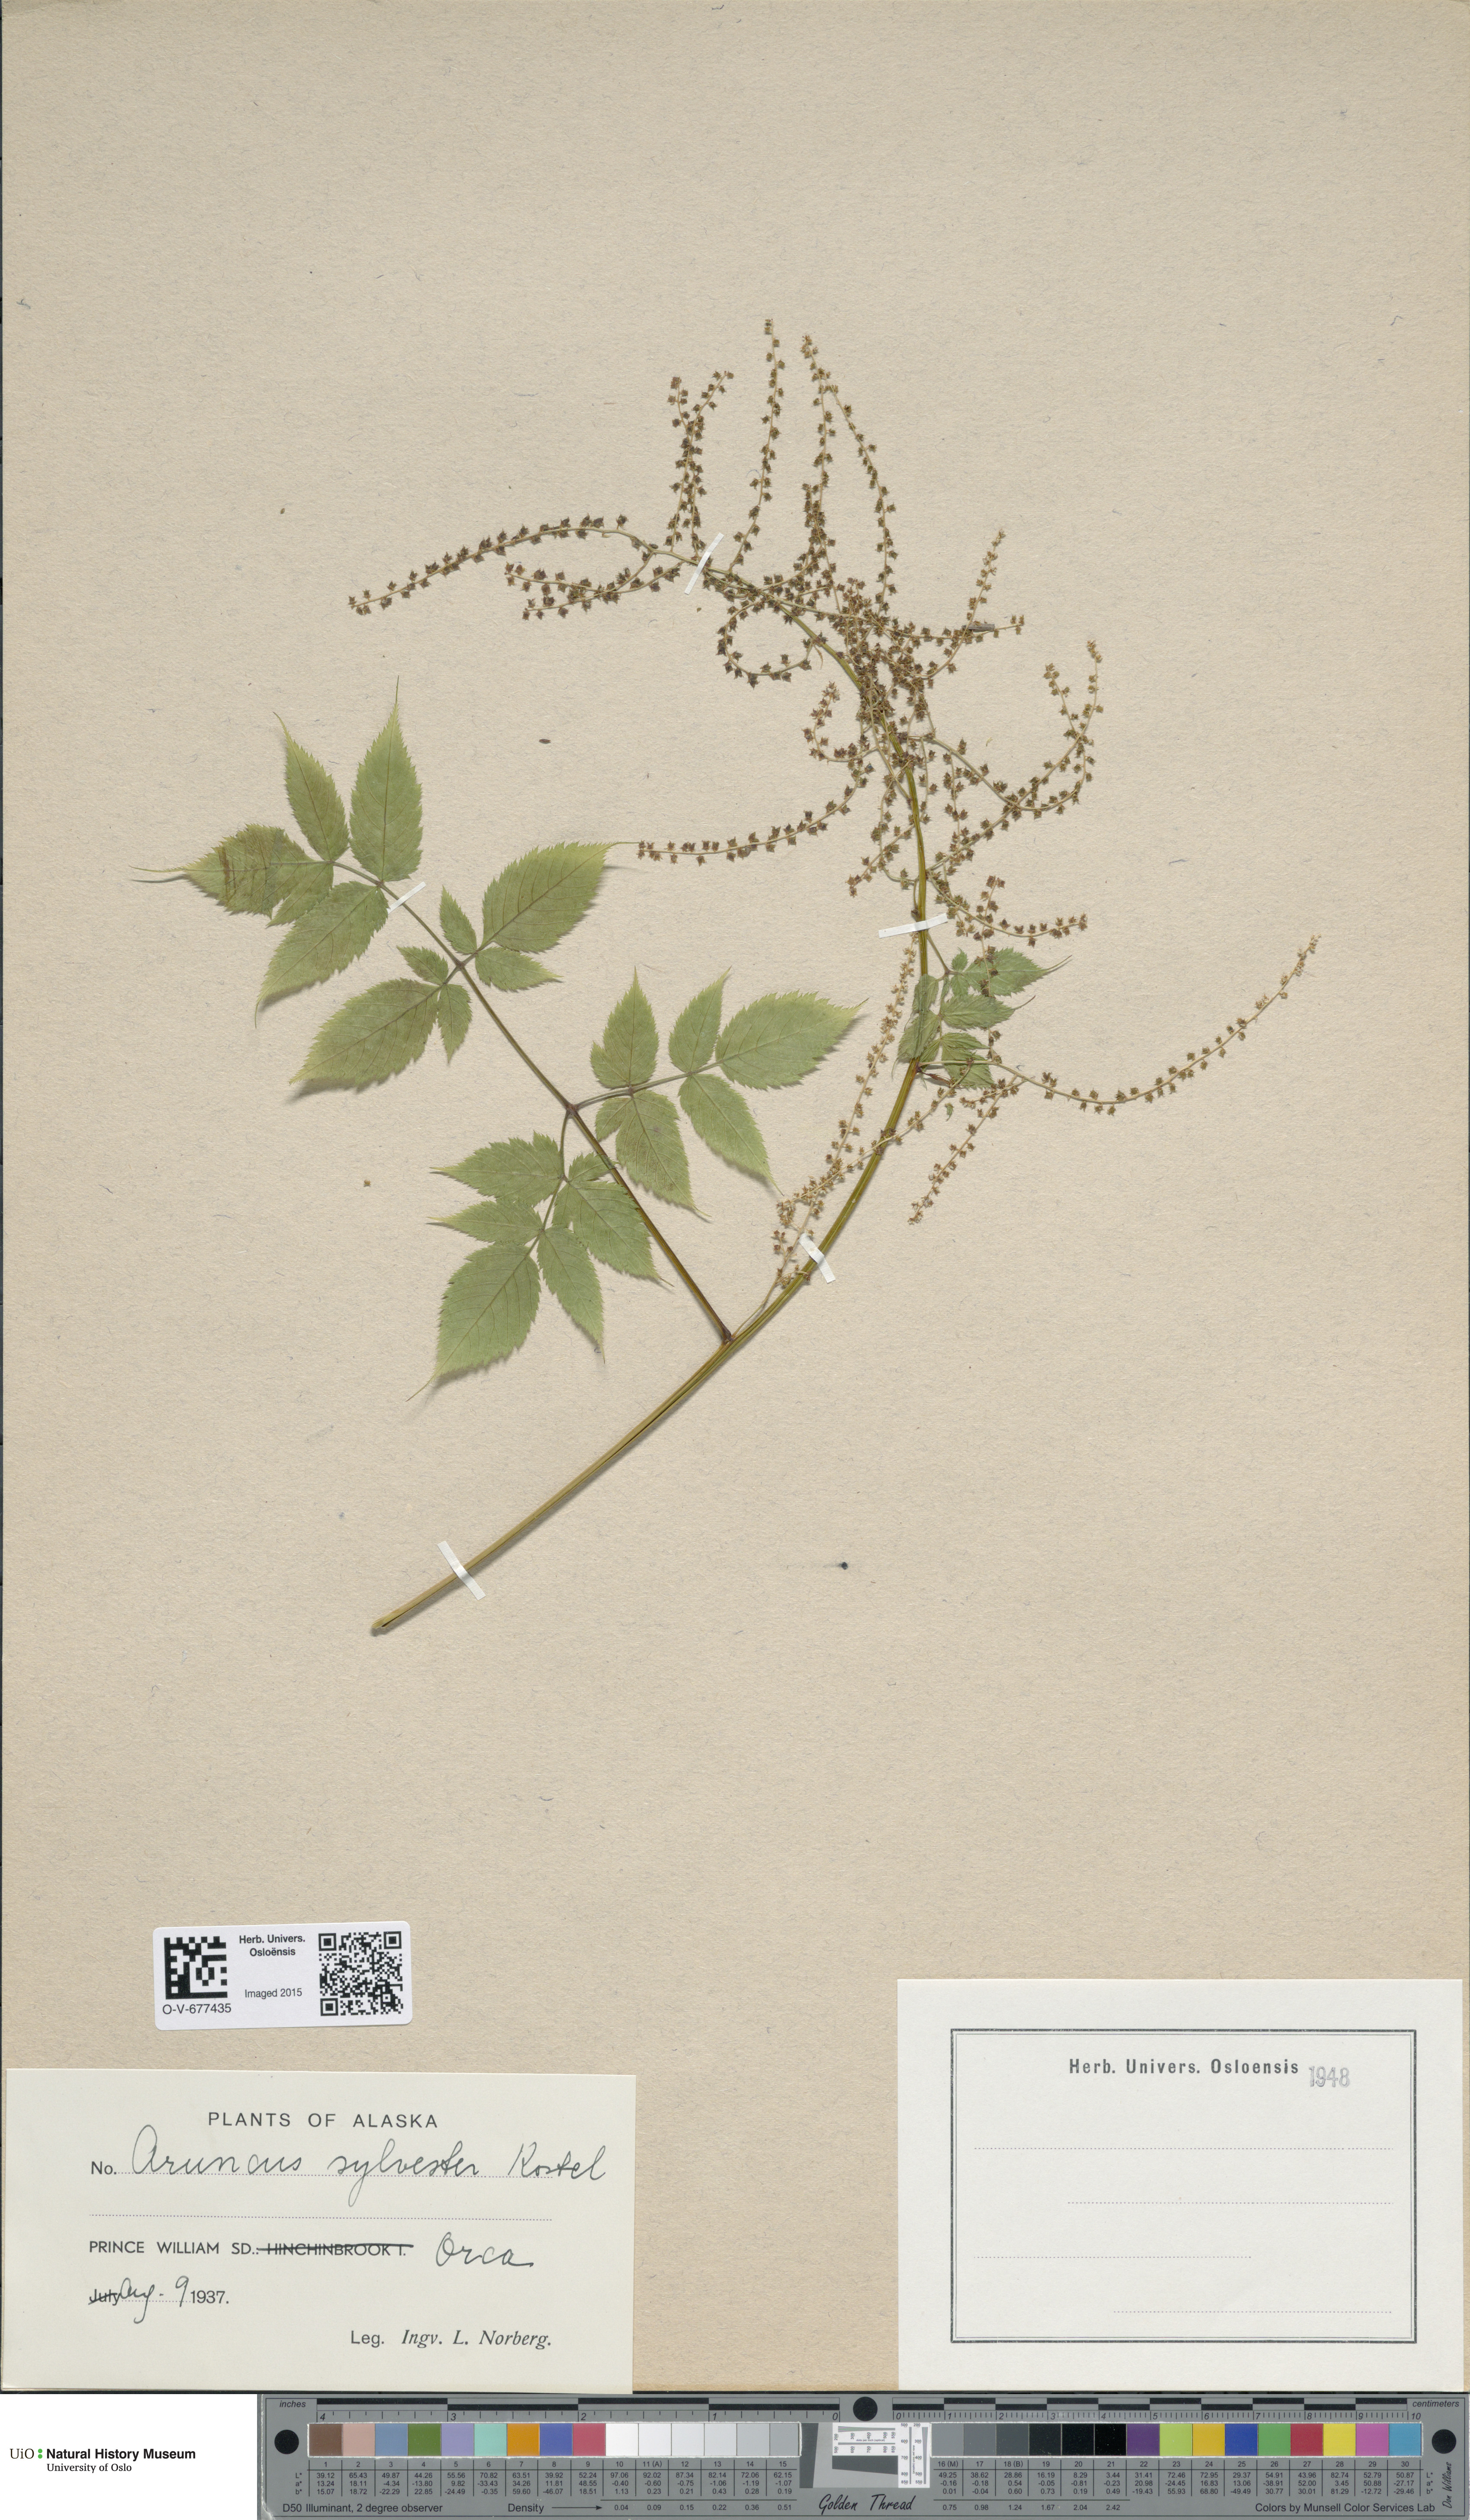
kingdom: Plantae
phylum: Tracheophyta
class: Magnoliopsida
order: Rosales
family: Rosaceae
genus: Aruncus
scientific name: Aruncus sylvester
